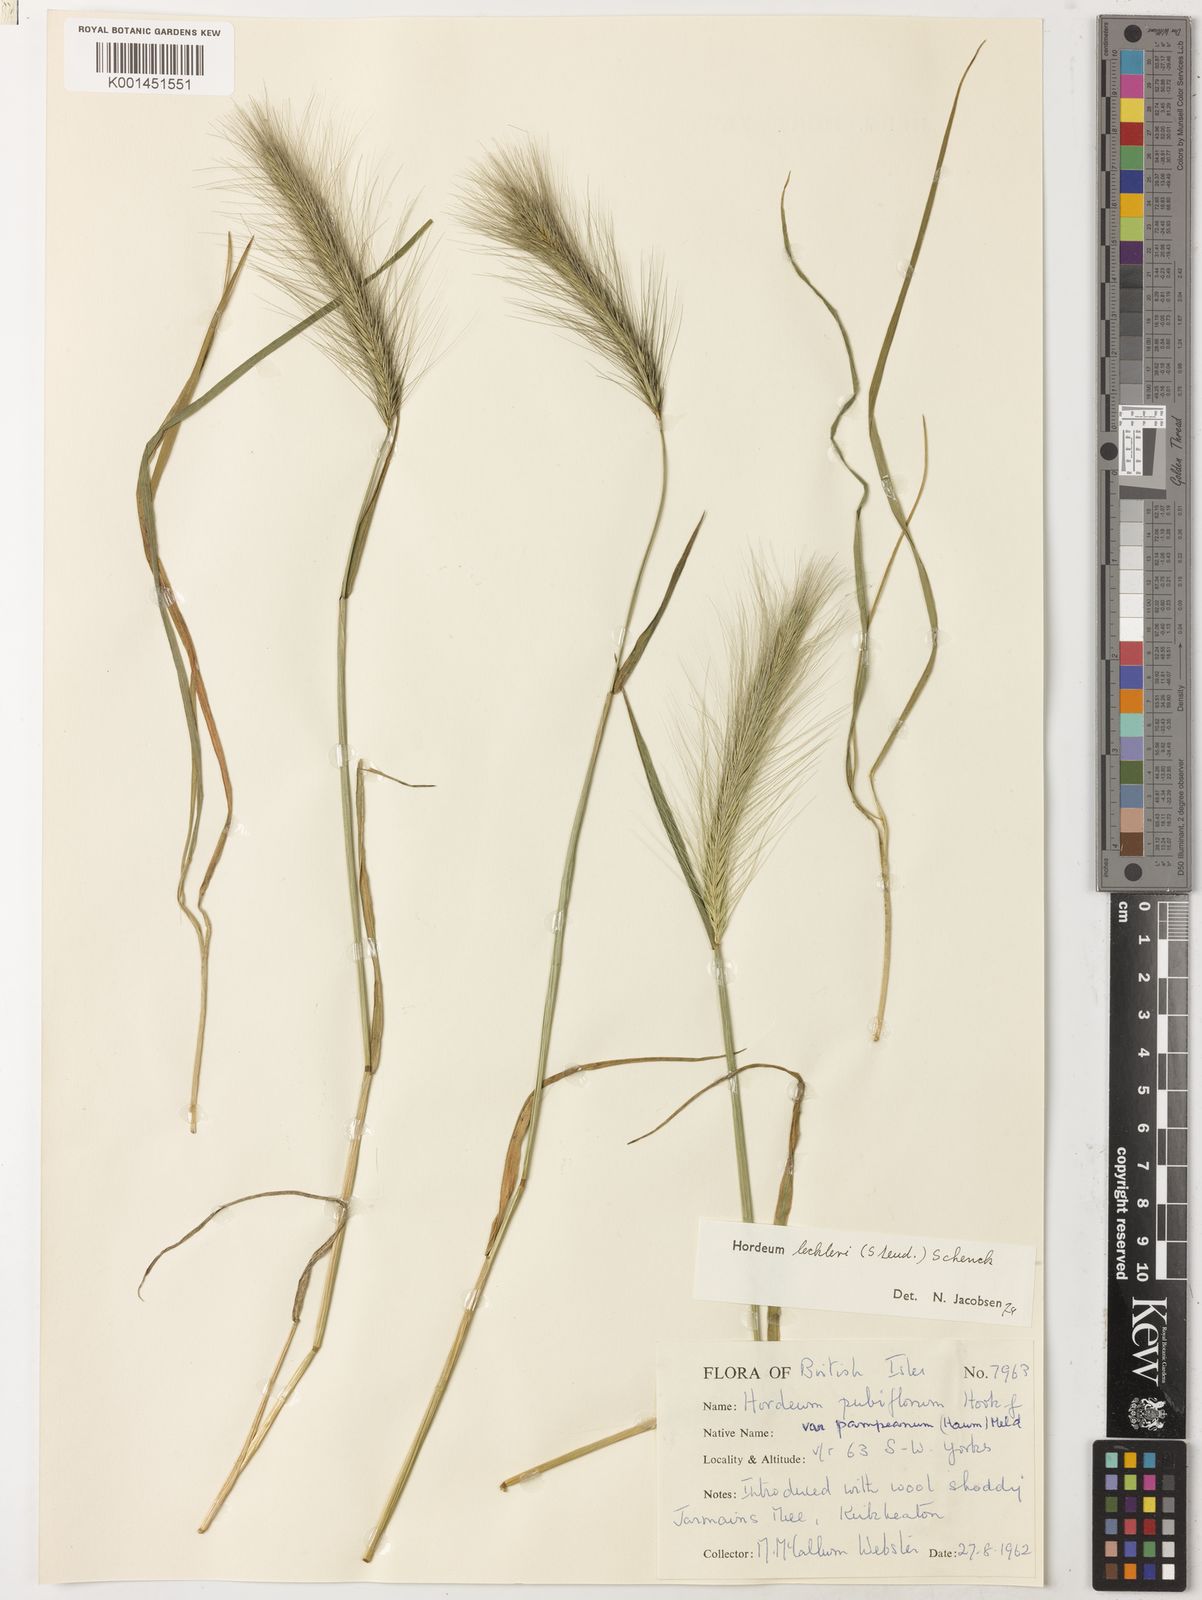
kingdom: Plantae
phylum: Tracheophyta
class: Liliopsida
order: Poales
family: Poaceae
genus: Hordeum
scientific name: Hordeum lechleri
